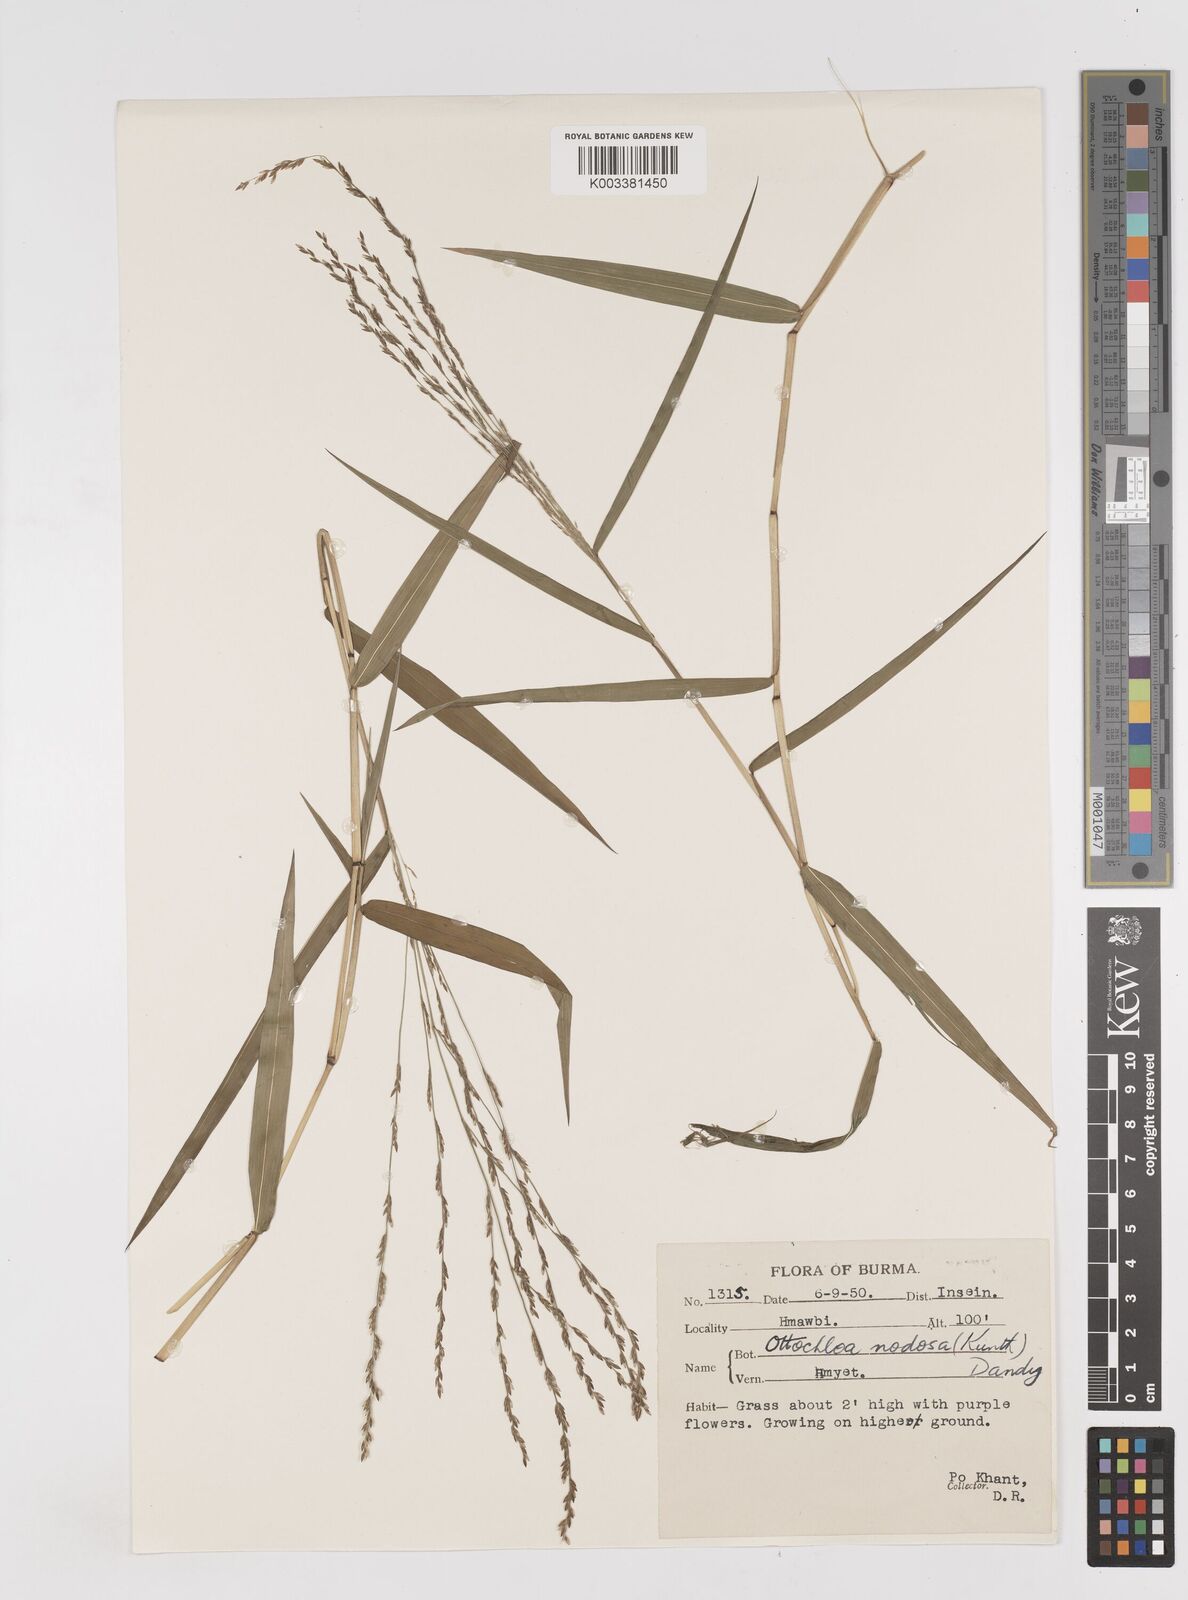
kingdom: Plantae
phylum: Tracheophyta
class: Liliopsida
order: Poales
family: Poaceae
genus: Ottochloa
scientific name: Ottochloa nodosa
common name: Slender-panic grass
